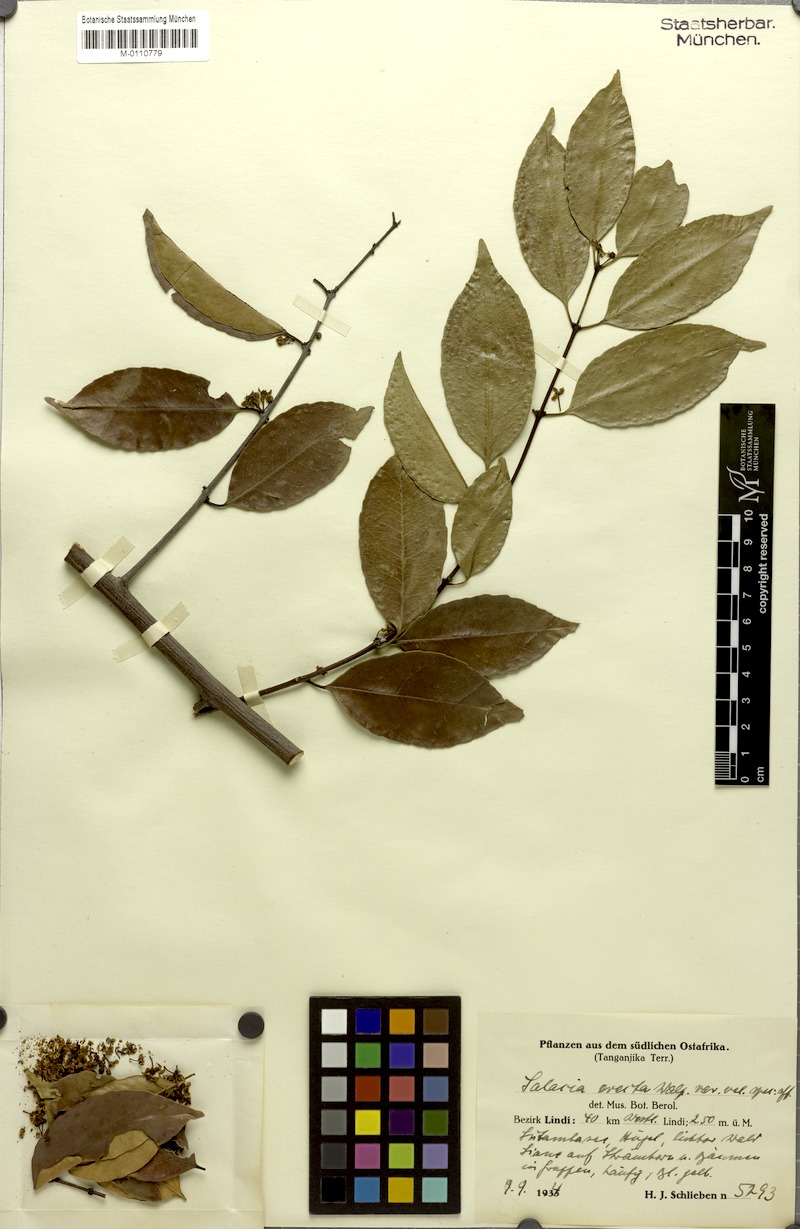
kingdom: Plantae
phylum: Tracheophyta
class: Magnoliopsida
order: Celastrales
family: Celastraceae
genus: Salacia
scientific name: Salacia erecta
